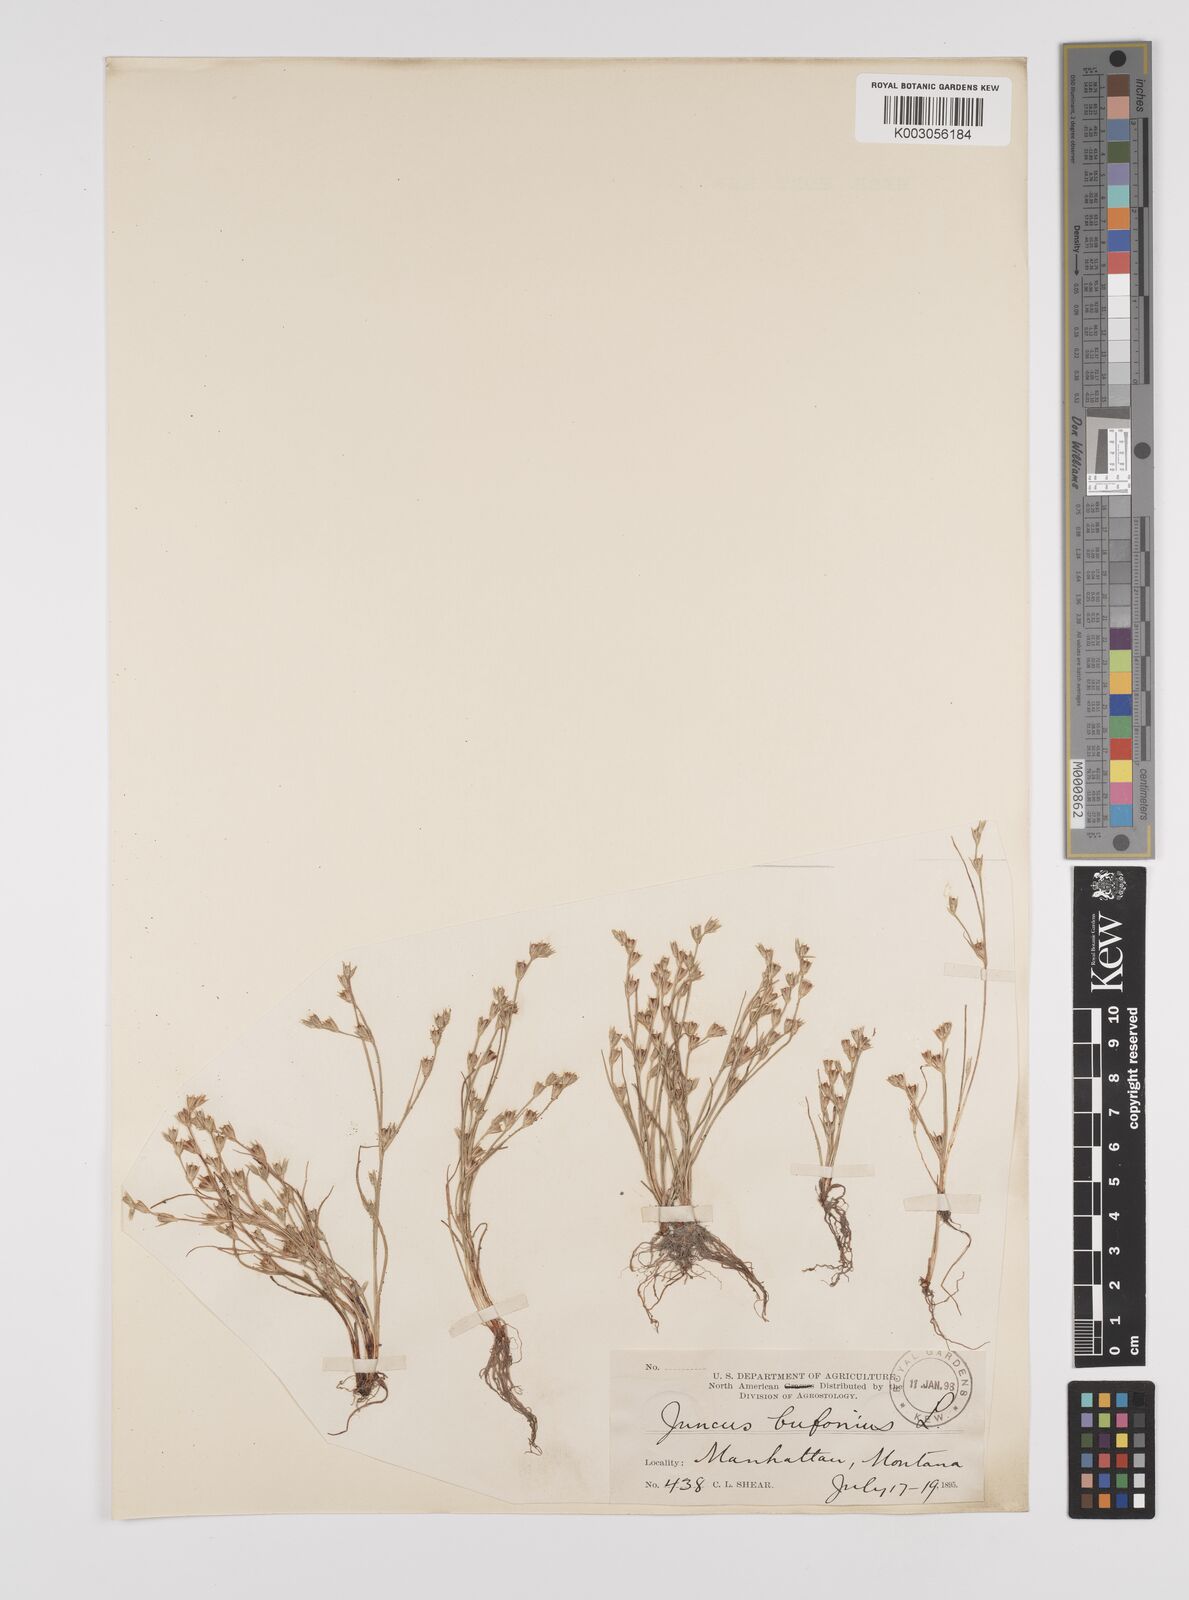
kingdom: Plantae
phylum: Tracheophyta
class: Liliopsida
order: Poales
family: Juncaceae
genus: Juncus
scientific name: Juncus bufonius
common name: Toad rush
